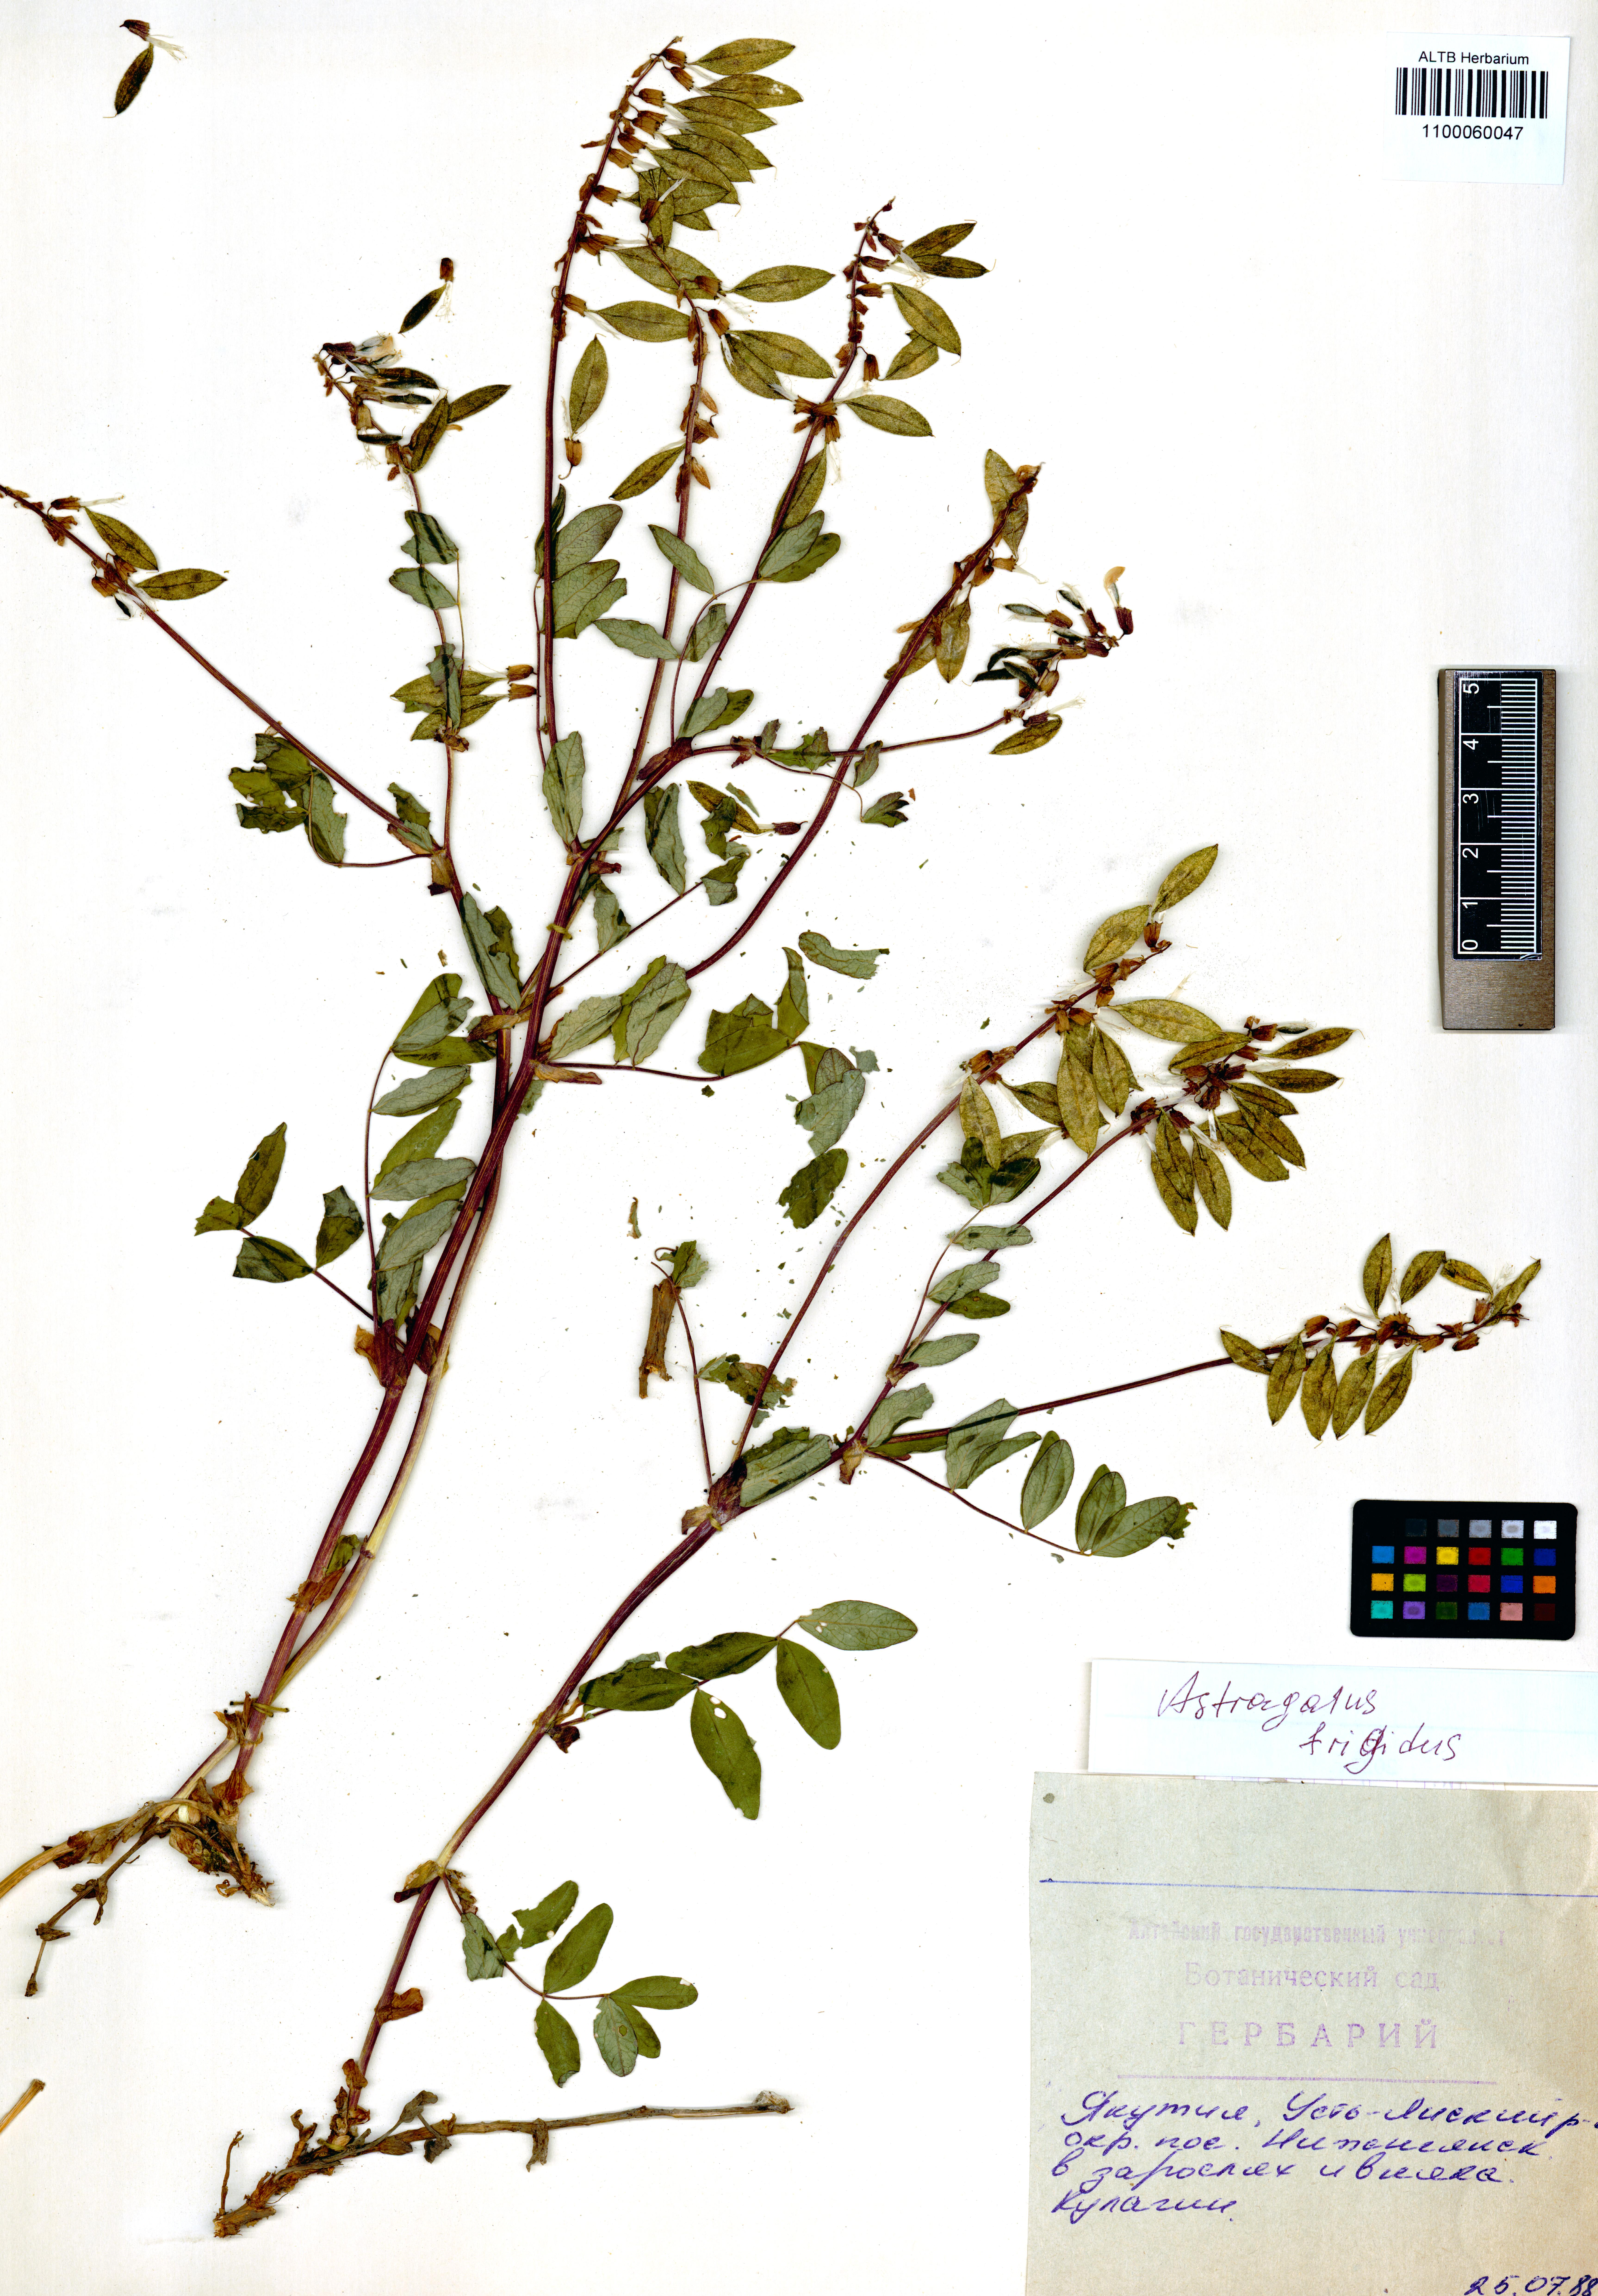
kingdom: Plantae
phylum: Tracheophyta
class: Magnoliopsida
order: Fabales
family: Fabaceae
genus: Astragalus
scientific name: Astragalus frigidus
